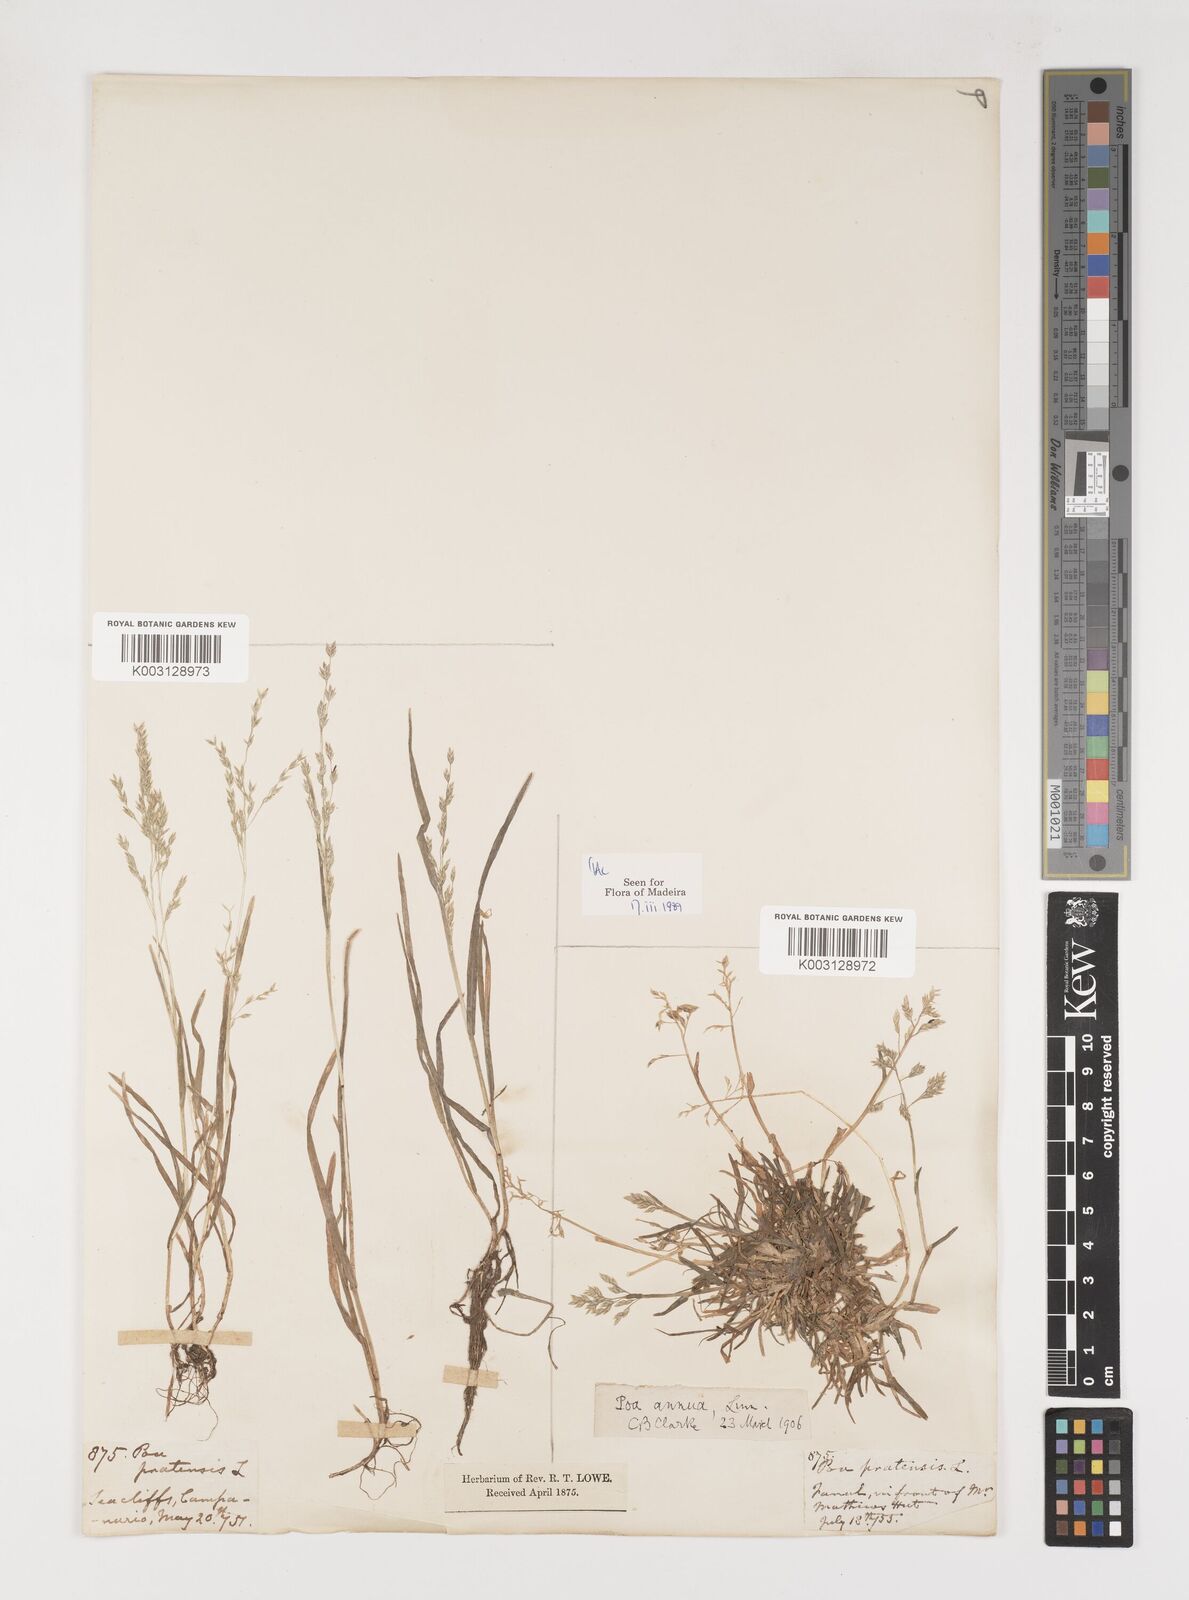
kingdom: Plantae
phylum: Tracheophyta
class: Liliopsida
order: Poales
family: Poaceae
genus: Poa
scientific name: Poa annua
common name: Annual bluegrass
